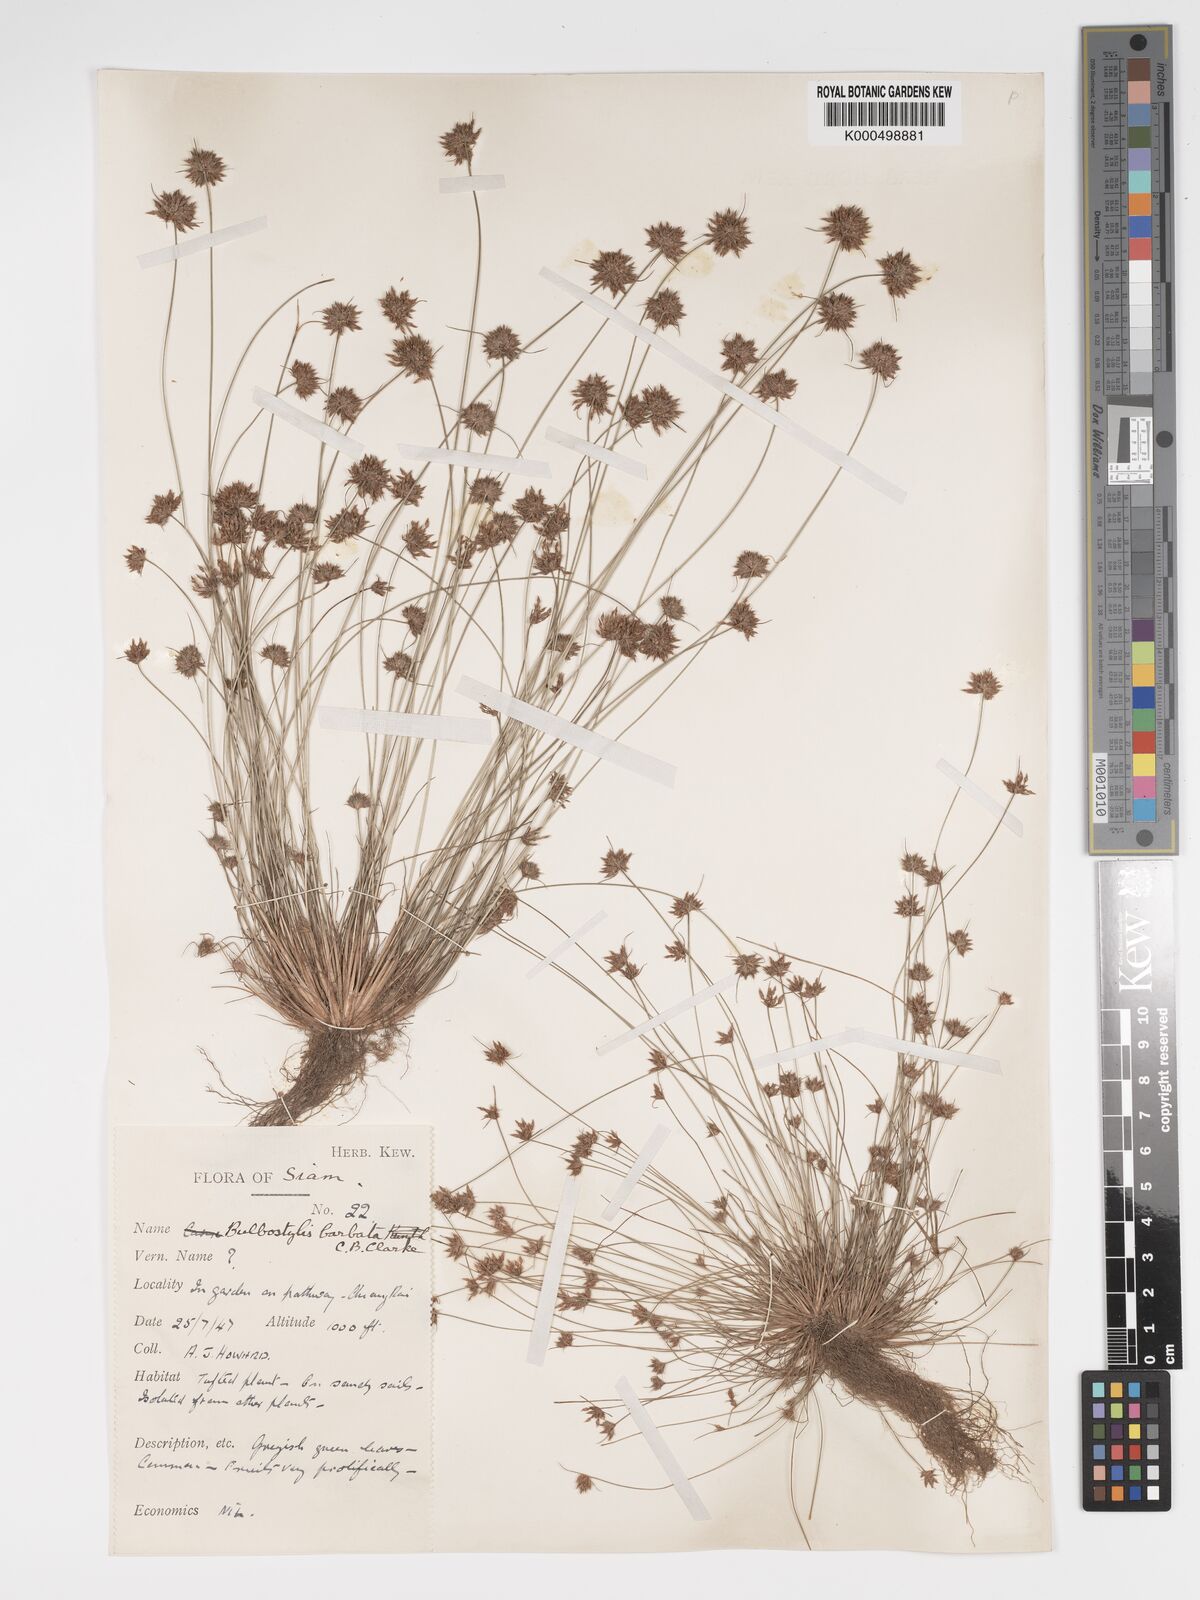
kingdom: Plantae
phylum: Tracheophyta
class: Liliopsida
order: Poales
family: Cyperaceae
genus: Bulbostylis
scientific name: Bulbostylis barbata
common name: Watergrass
